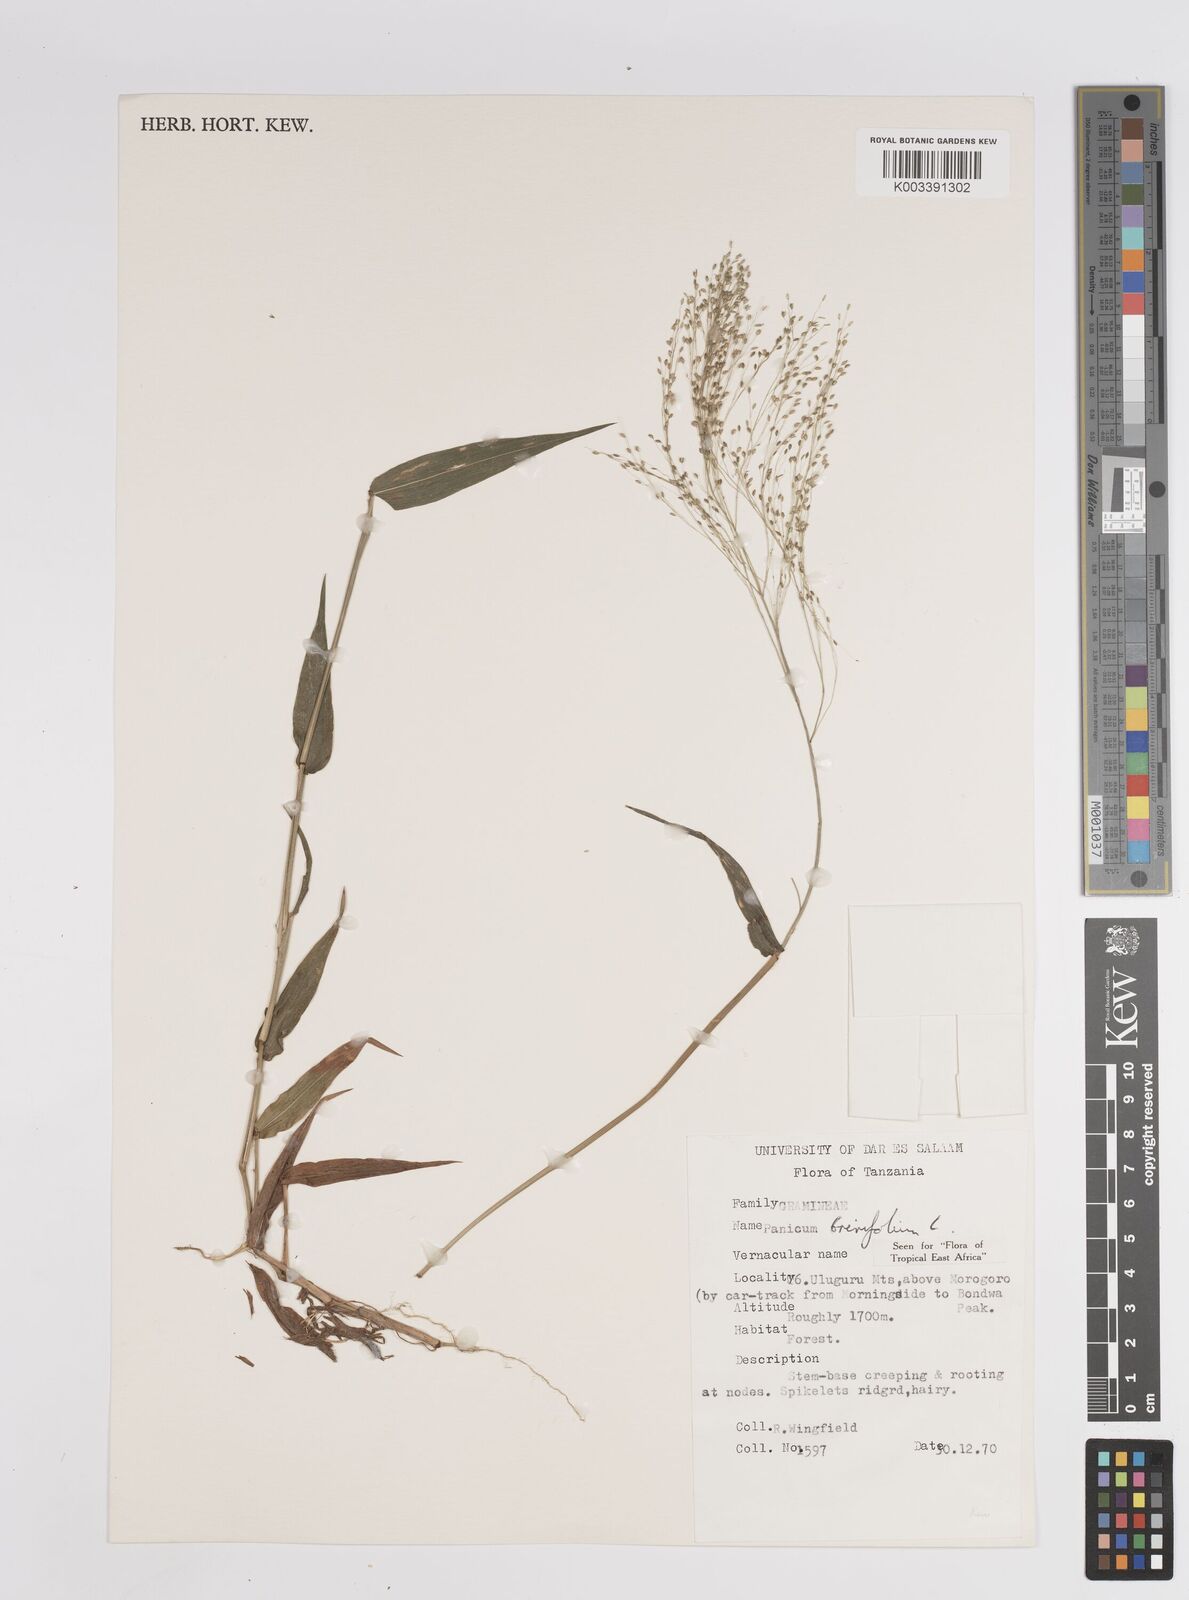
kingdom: Plantae
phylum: Tracheophyta
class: Liliopsida
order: Poales
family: Poaceae
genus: Panicum
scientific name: Panicum brevifolium
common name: Shortleaf panic grass
